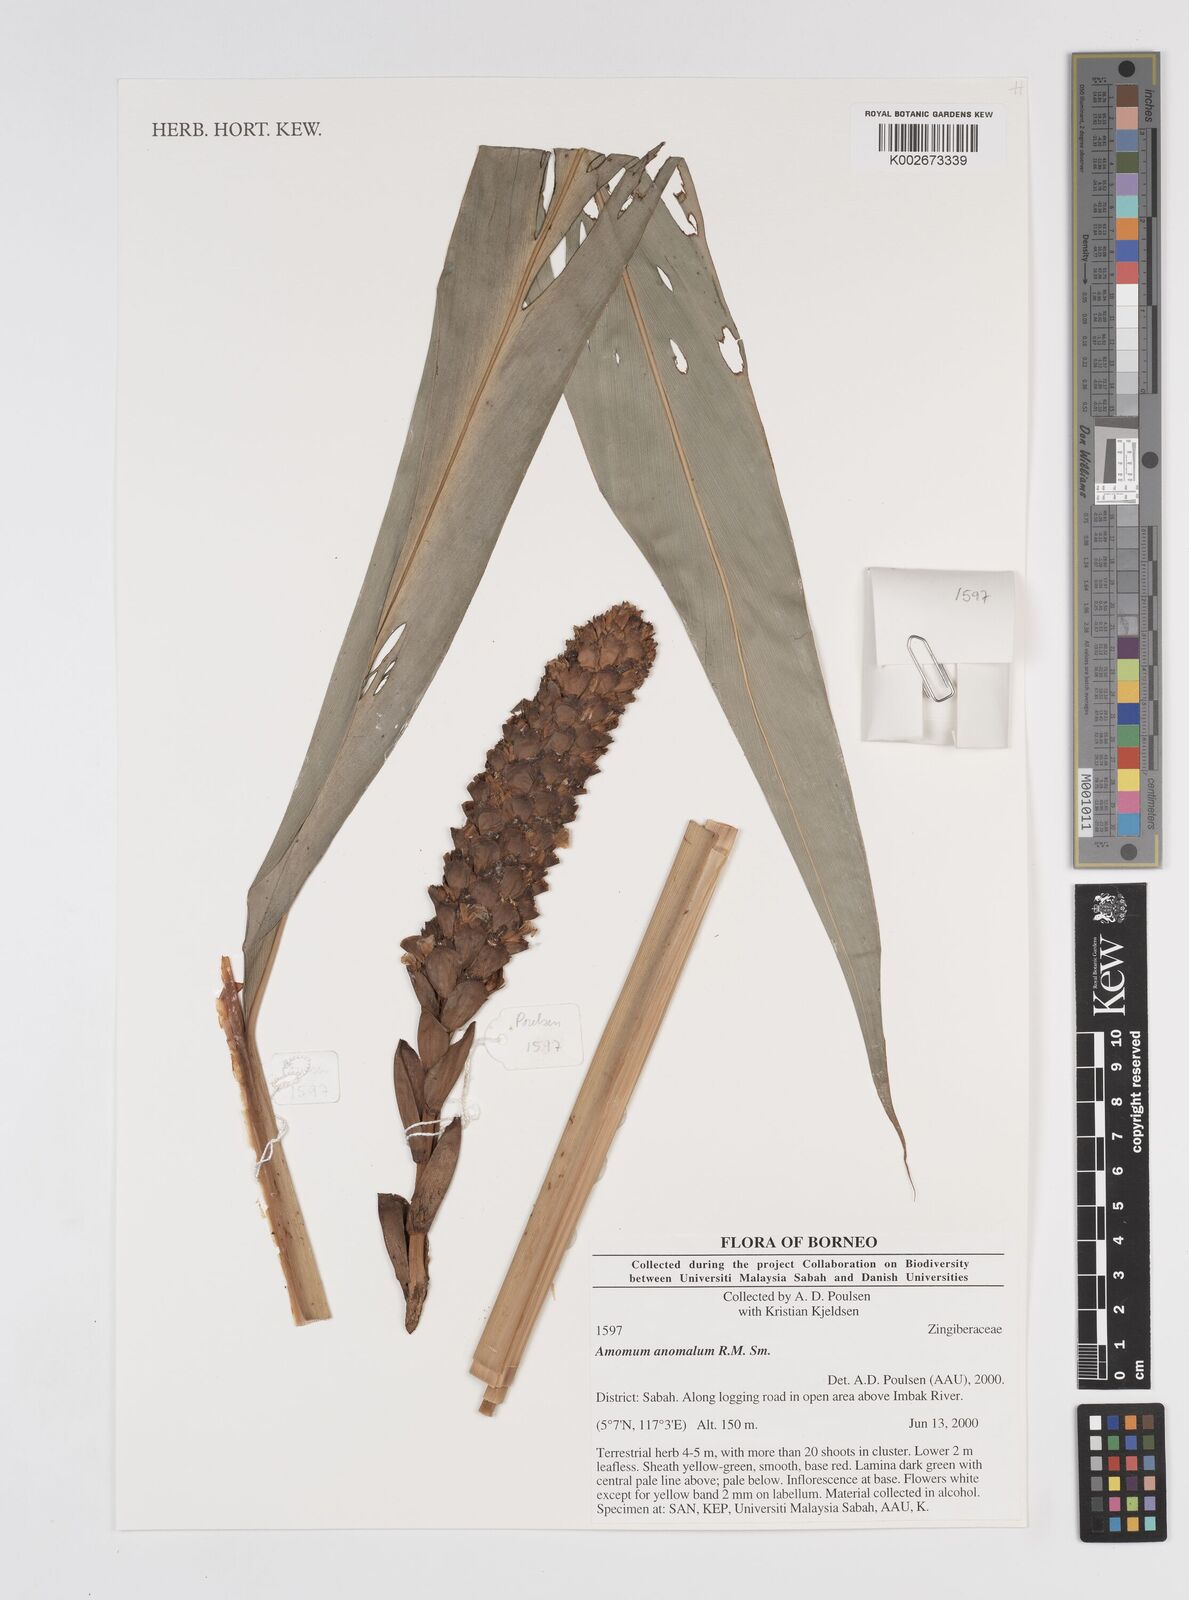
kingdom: Plantae
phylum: Tracheophyta
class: Liliopsida
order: Zingiberales
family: Zingiberaceae
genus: Sulettaria
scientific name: Sulettaria anomala
